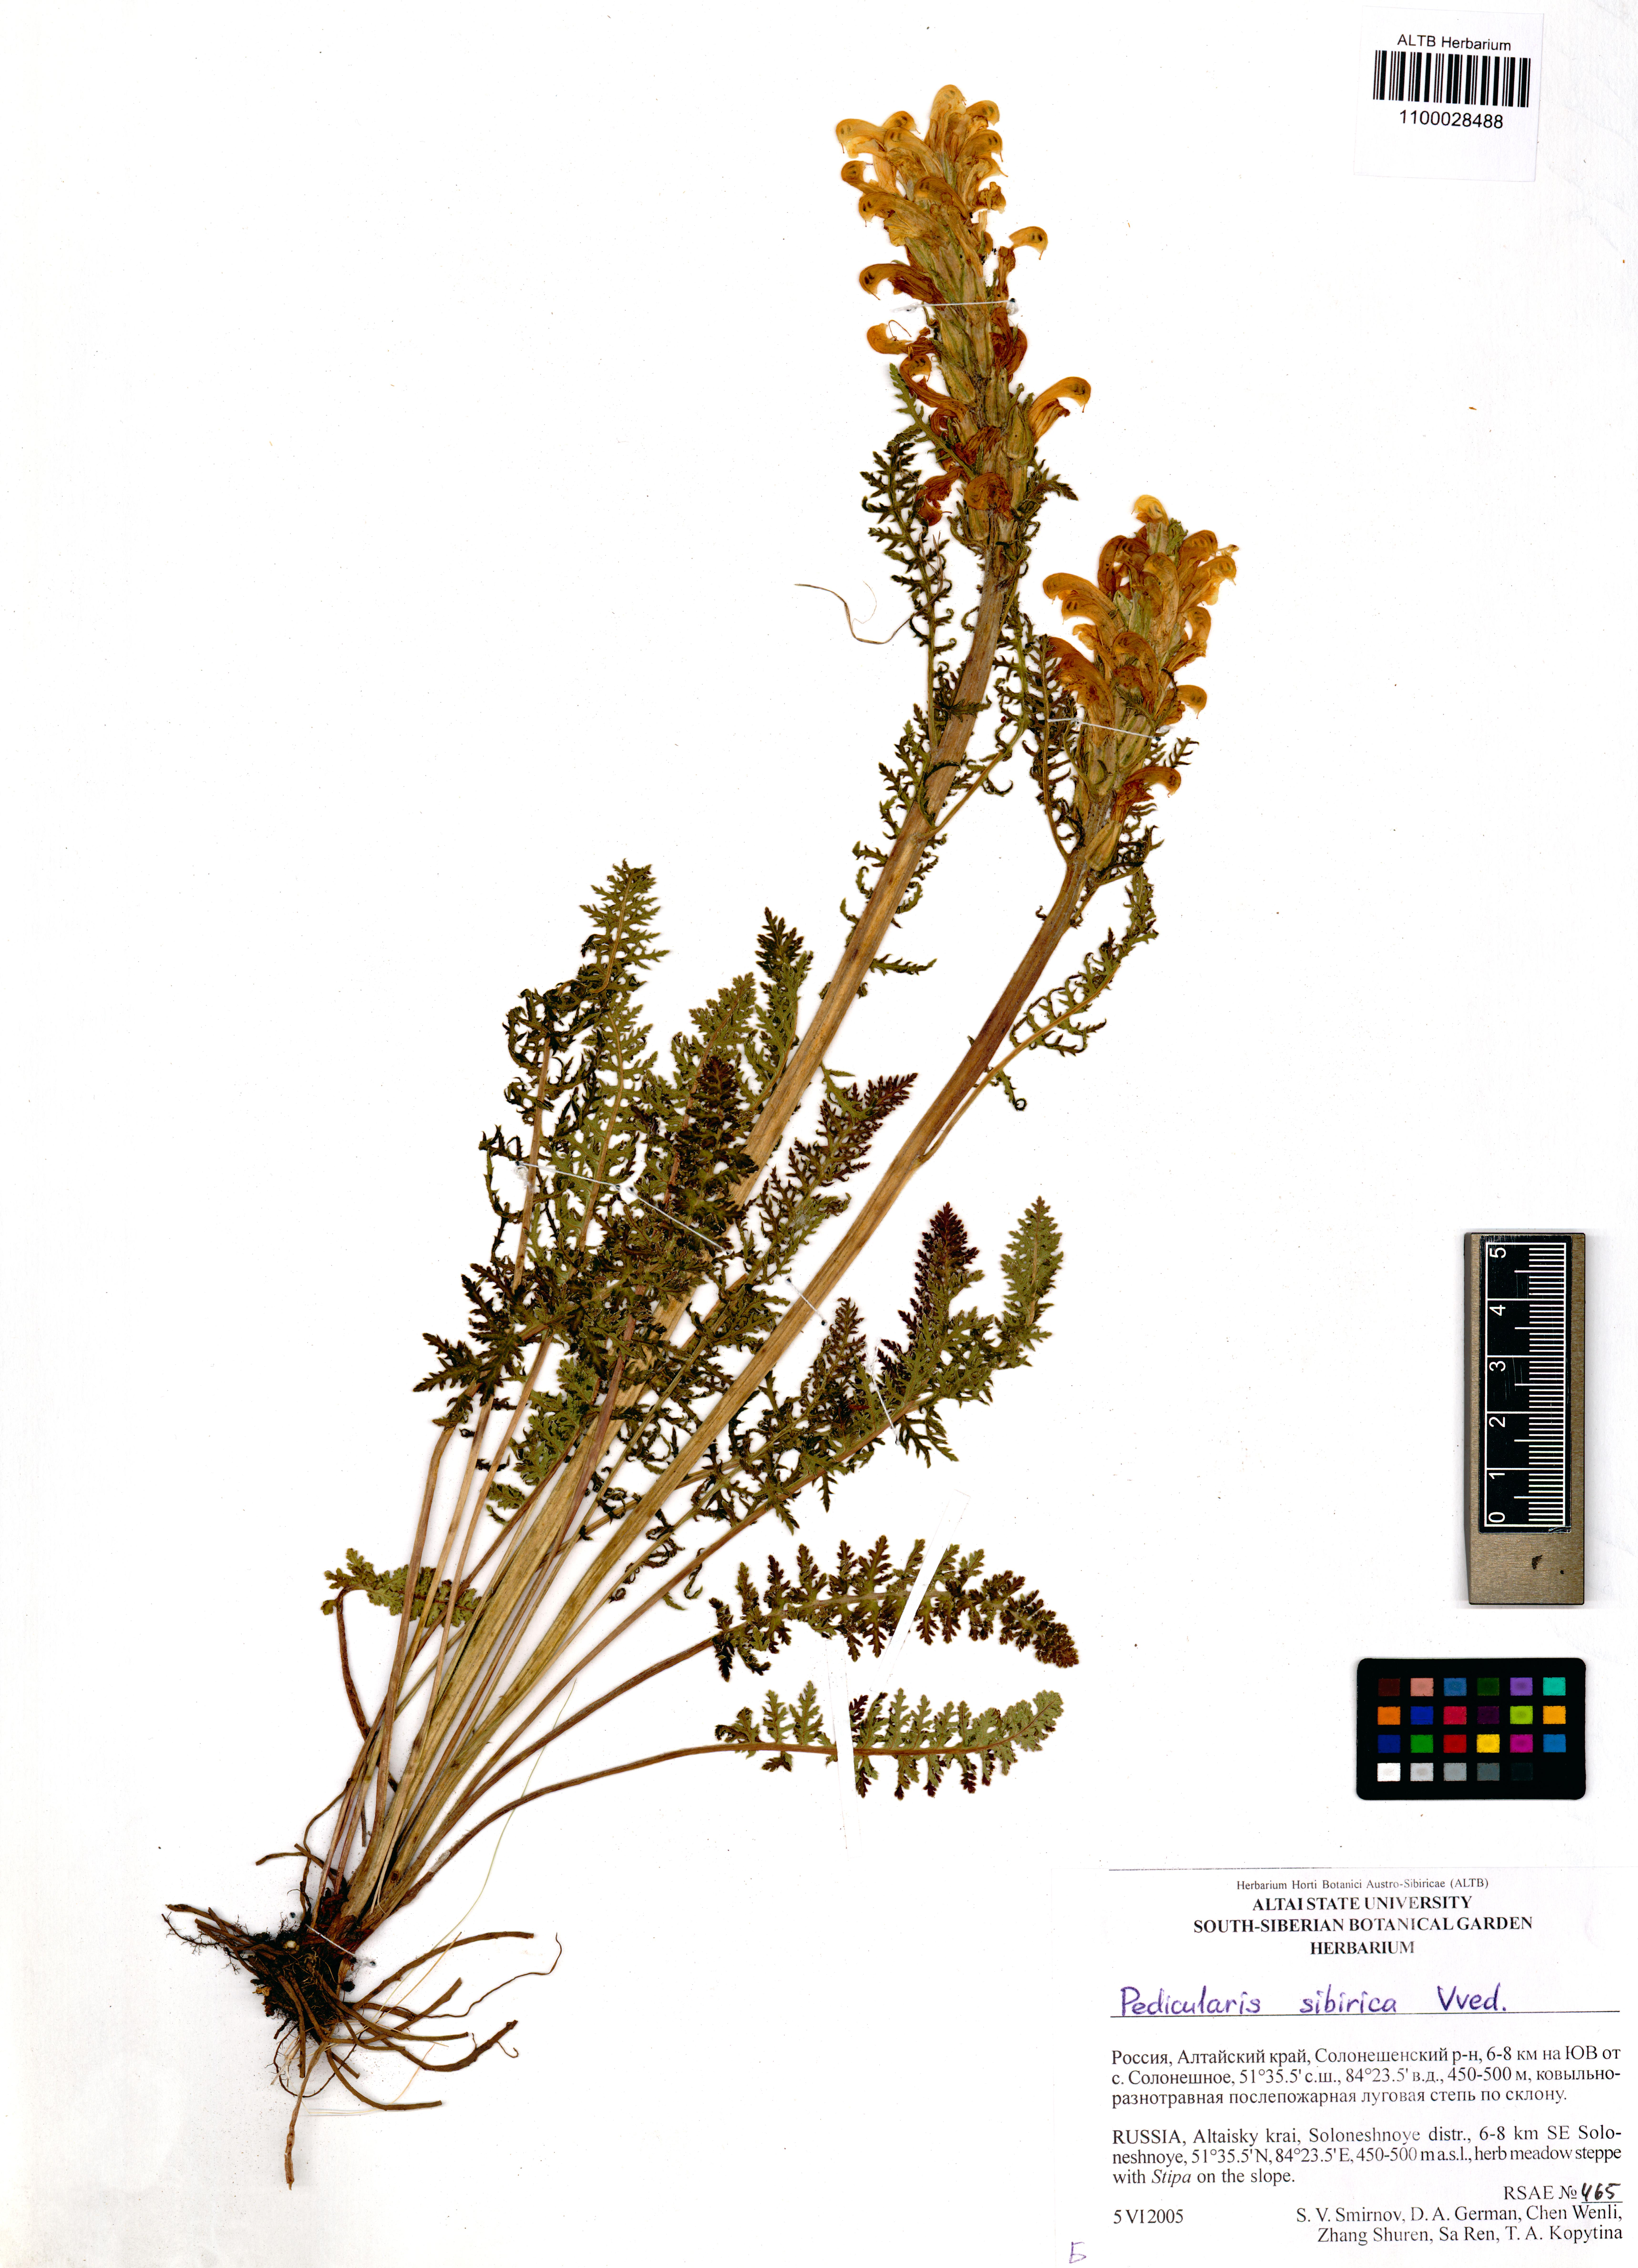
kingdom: Plantae
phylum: Tracheophyta
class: Magnoliopsida
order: Lamiales
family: Orobanchaceae
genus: Pedicularis
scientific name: Pedicularis sibirica
